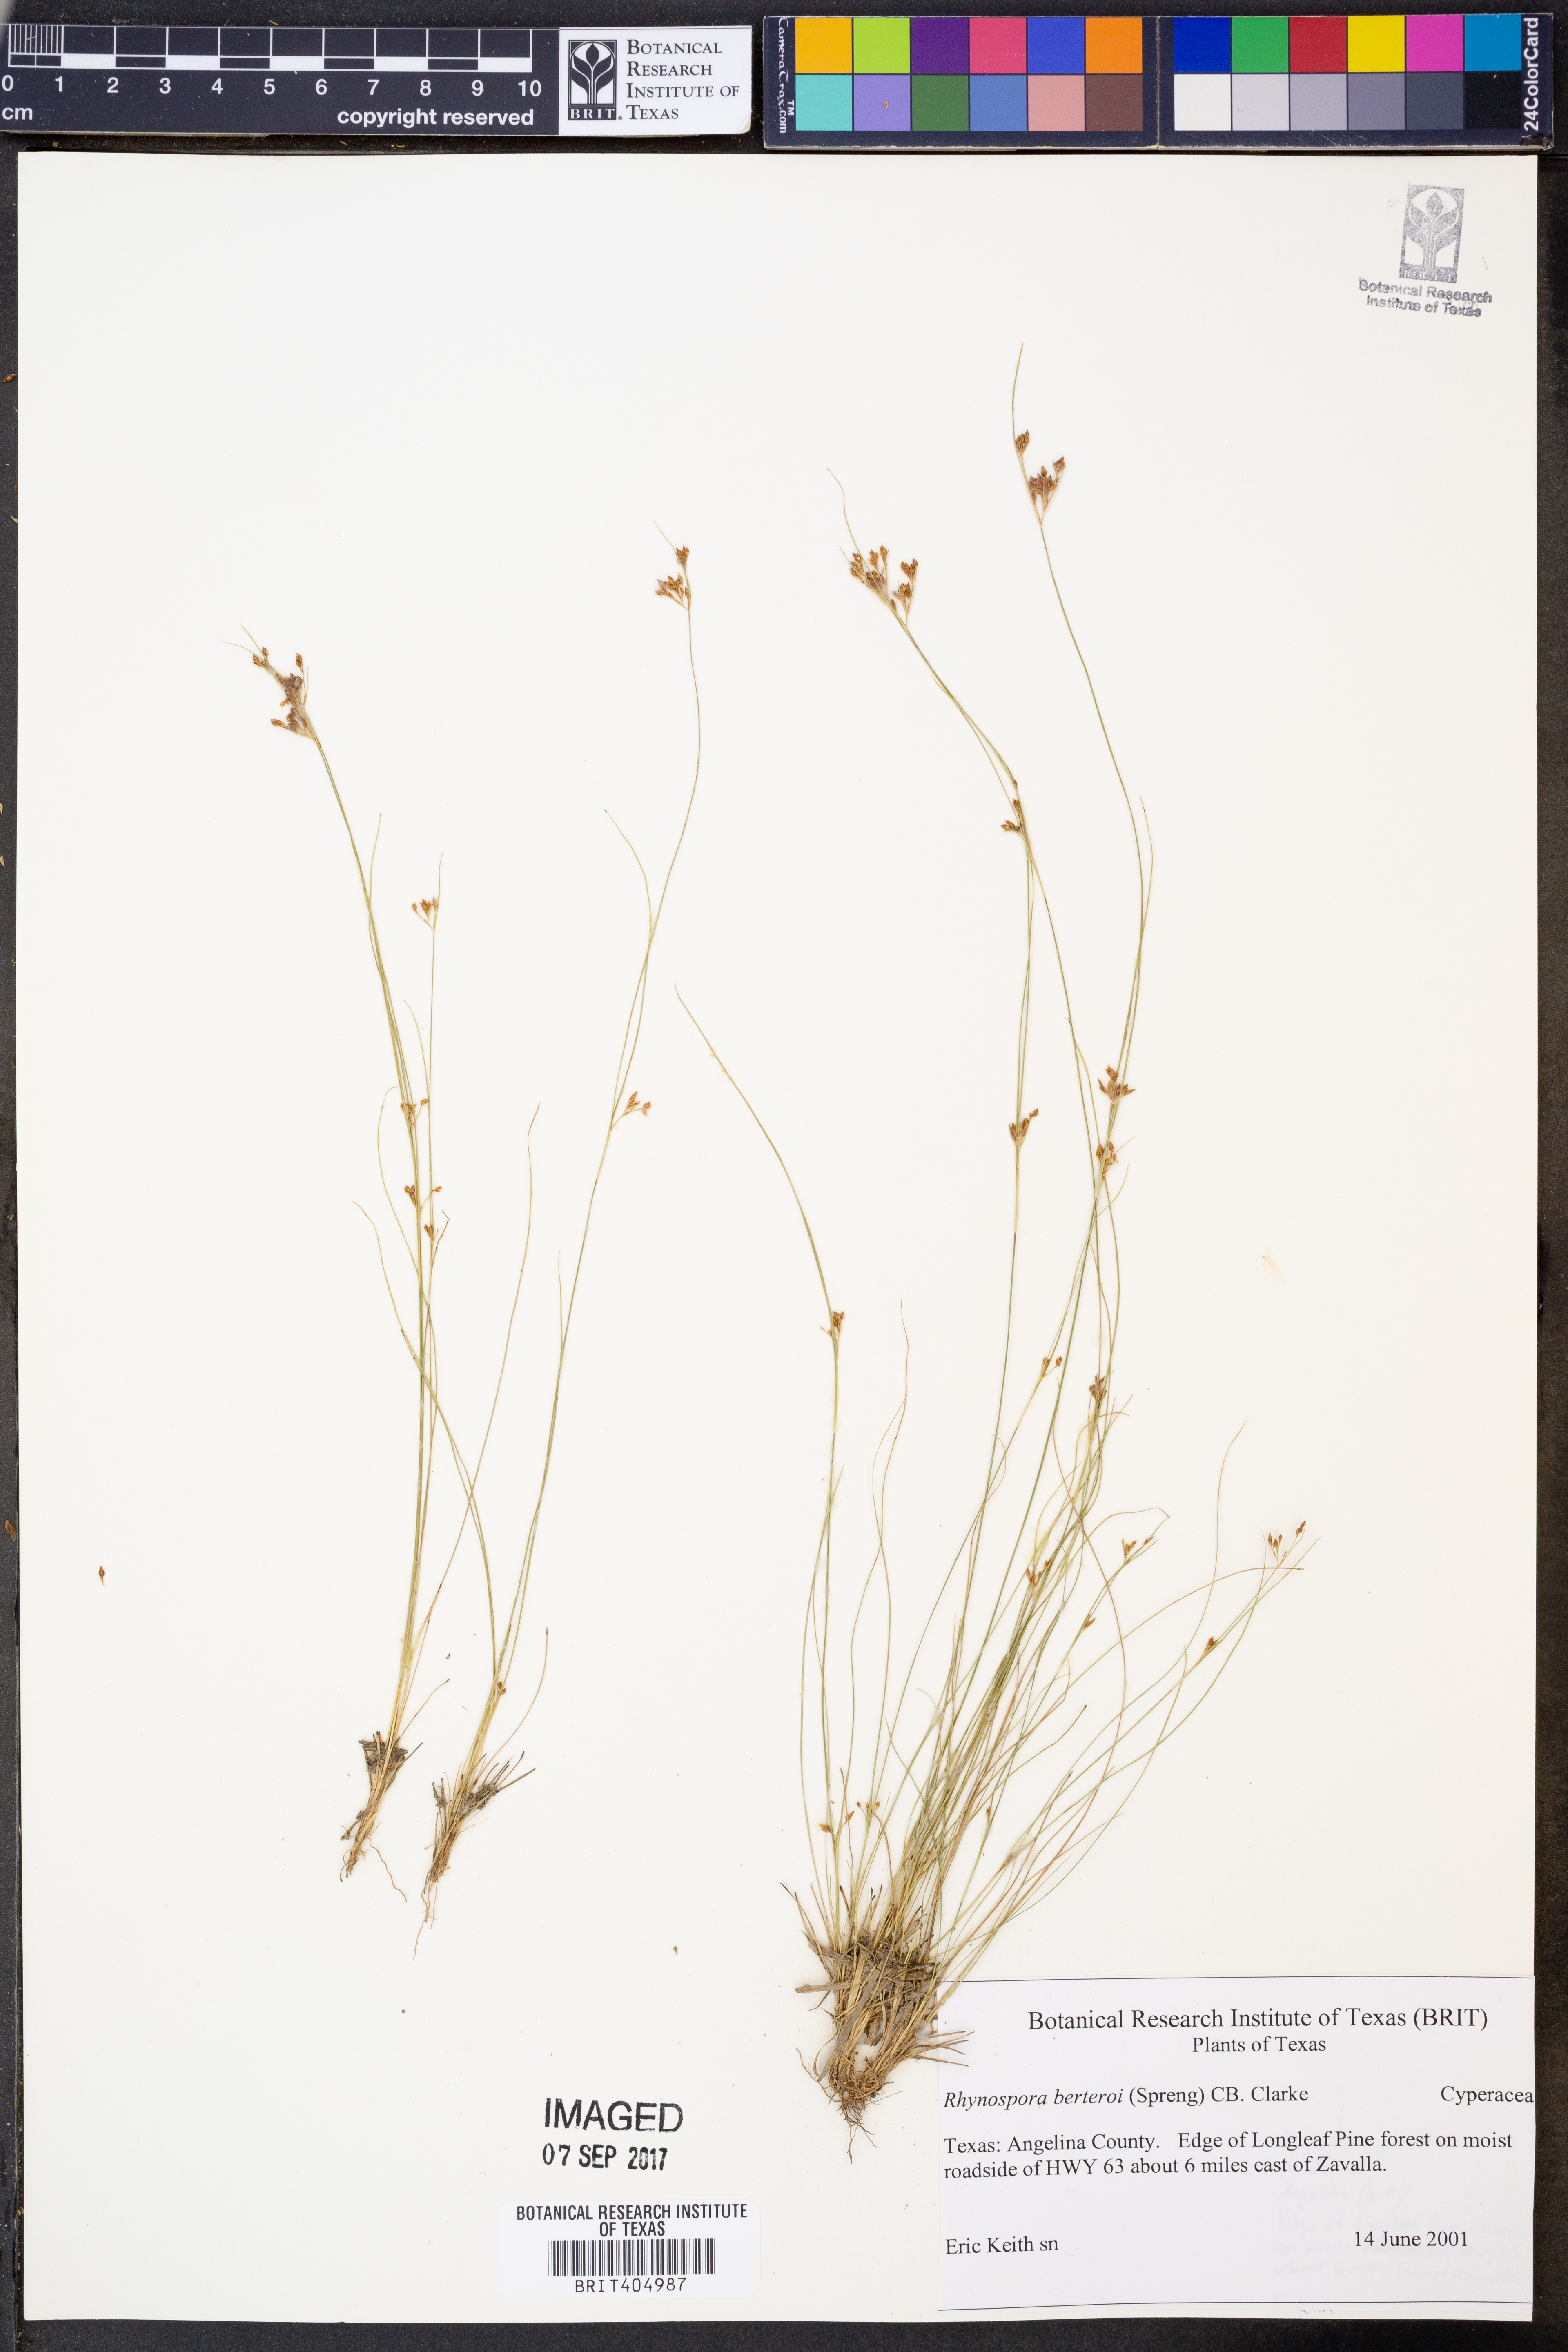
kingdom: Plantae
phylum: Tracheophyta
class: Liliopsida
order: Poales
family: Cyperaceae
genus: Rhynchospora
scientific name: Rhynchospora berteroi
